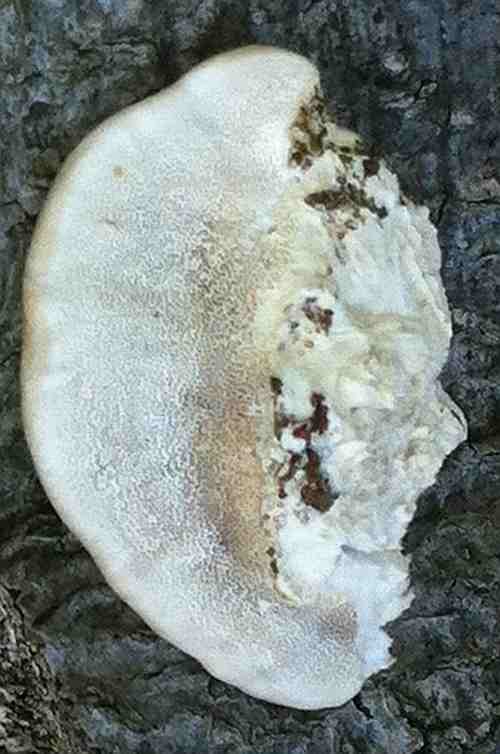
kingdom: Fungi
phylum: Basidiomycota
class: Agaricomycetes
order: Polyporales
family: Polyporaceae
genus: Trametes
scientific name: Trametes hirsuta
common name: håret læderporesvamp
